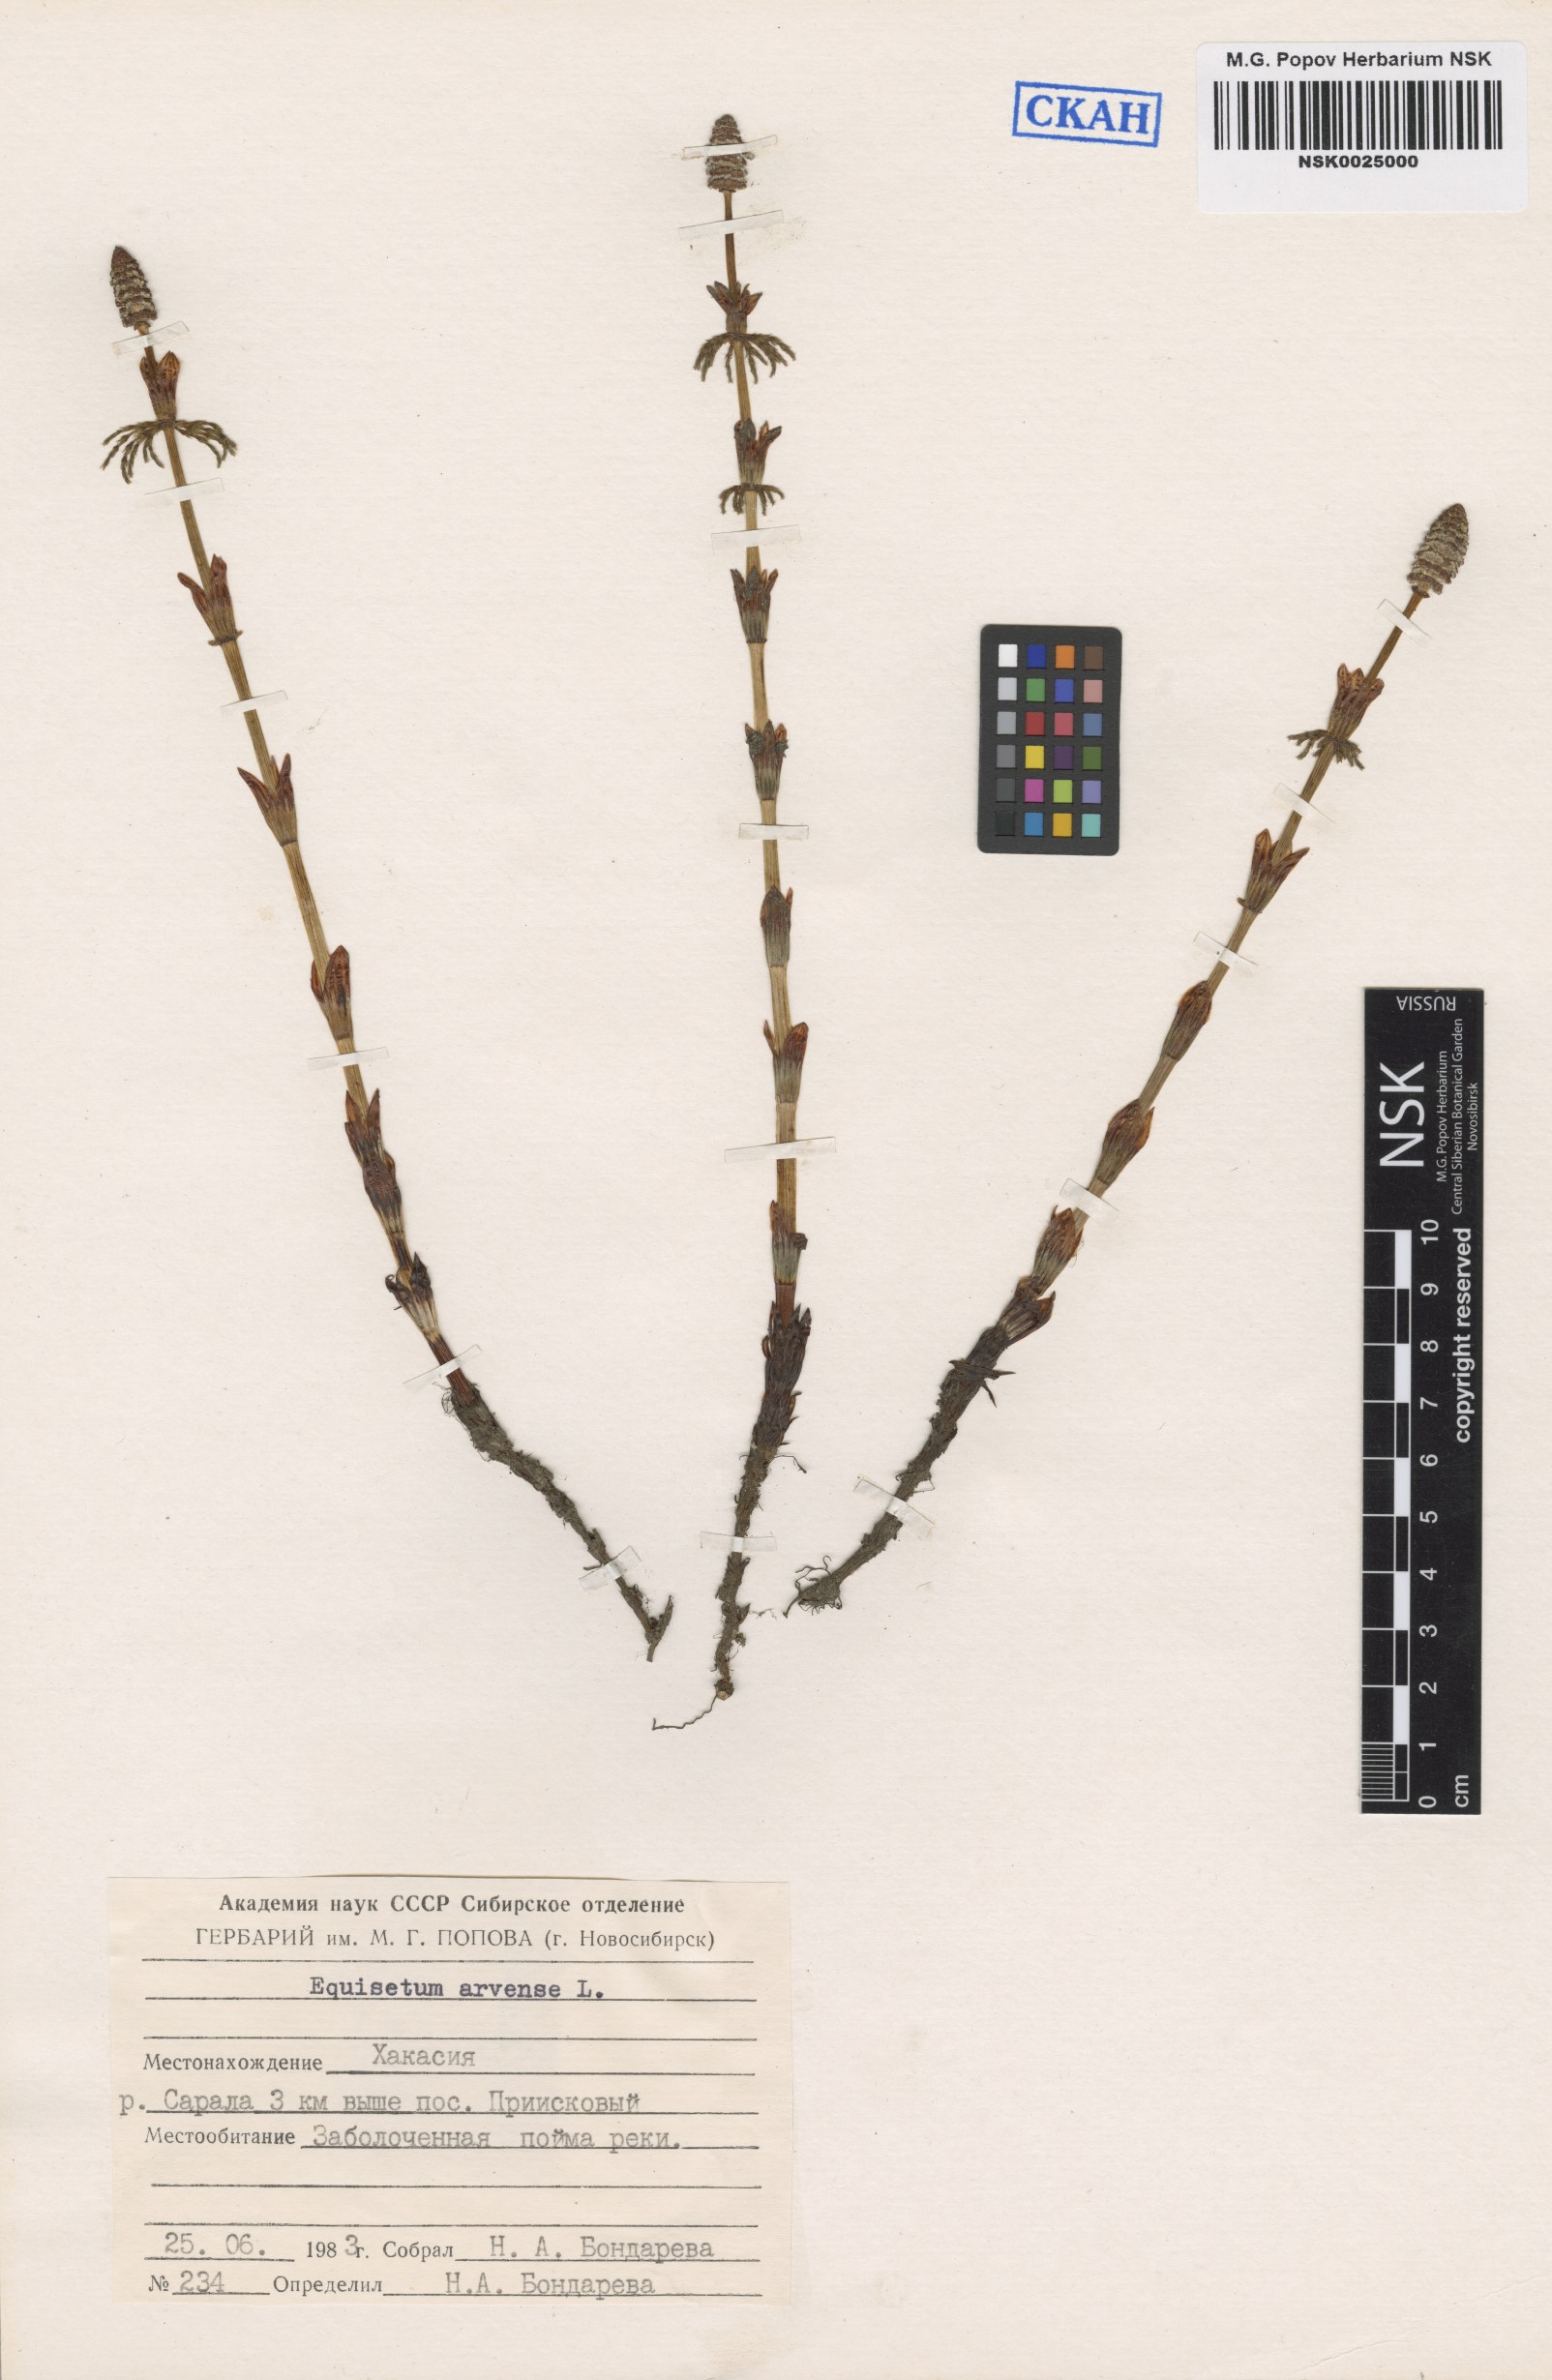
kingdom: Plantae
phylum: Tracheophyta
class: Polypodiopsida
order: Equisetales
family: Equisetaceae
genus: Equisetum
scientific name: Equisetum arvense
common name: Field horsetail
